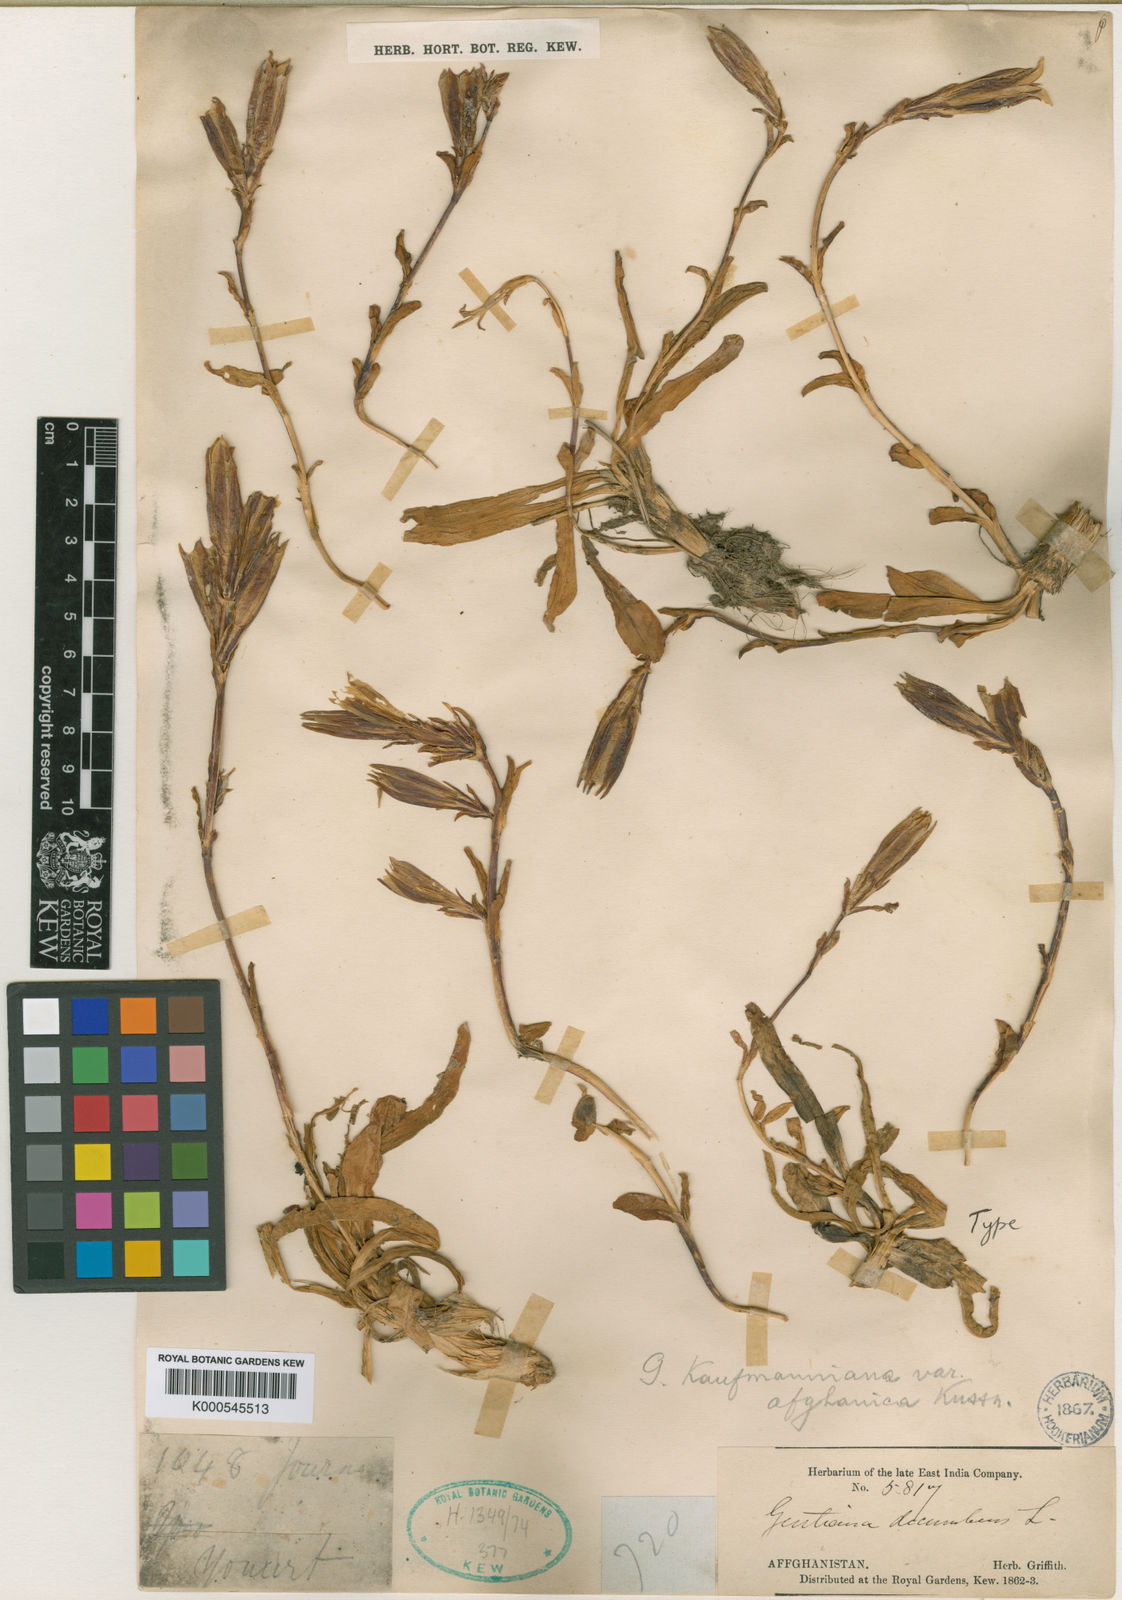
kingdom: Plantae
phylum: Tracheophyta
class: Magnoliopsida
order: Gentianales
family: Gentianaceae
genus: Gentiana
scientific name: Gentiana kauffmanniana
